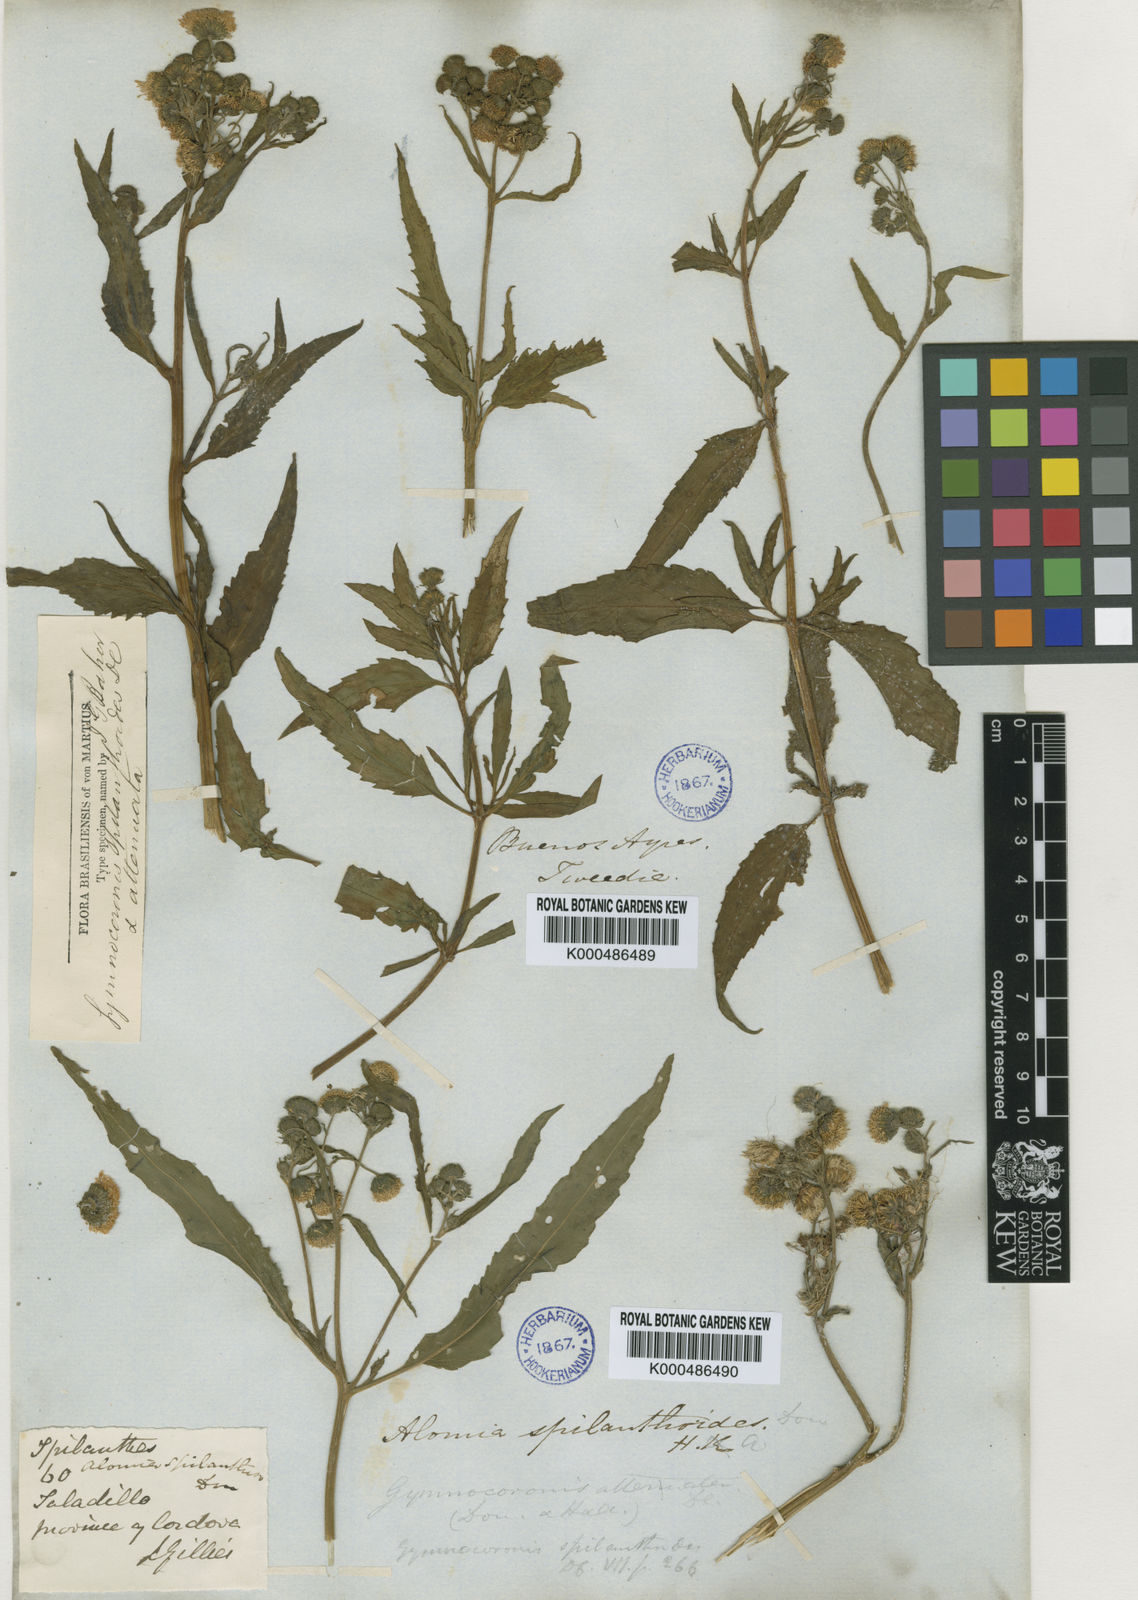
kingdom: Plantae
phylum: Tracheophyta
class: Magnoliopsida
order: Asterales
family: Asteraceae
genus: Gymnocoronis
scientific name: Gymnocoronis spilanthoides
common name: Senegal teaplant
